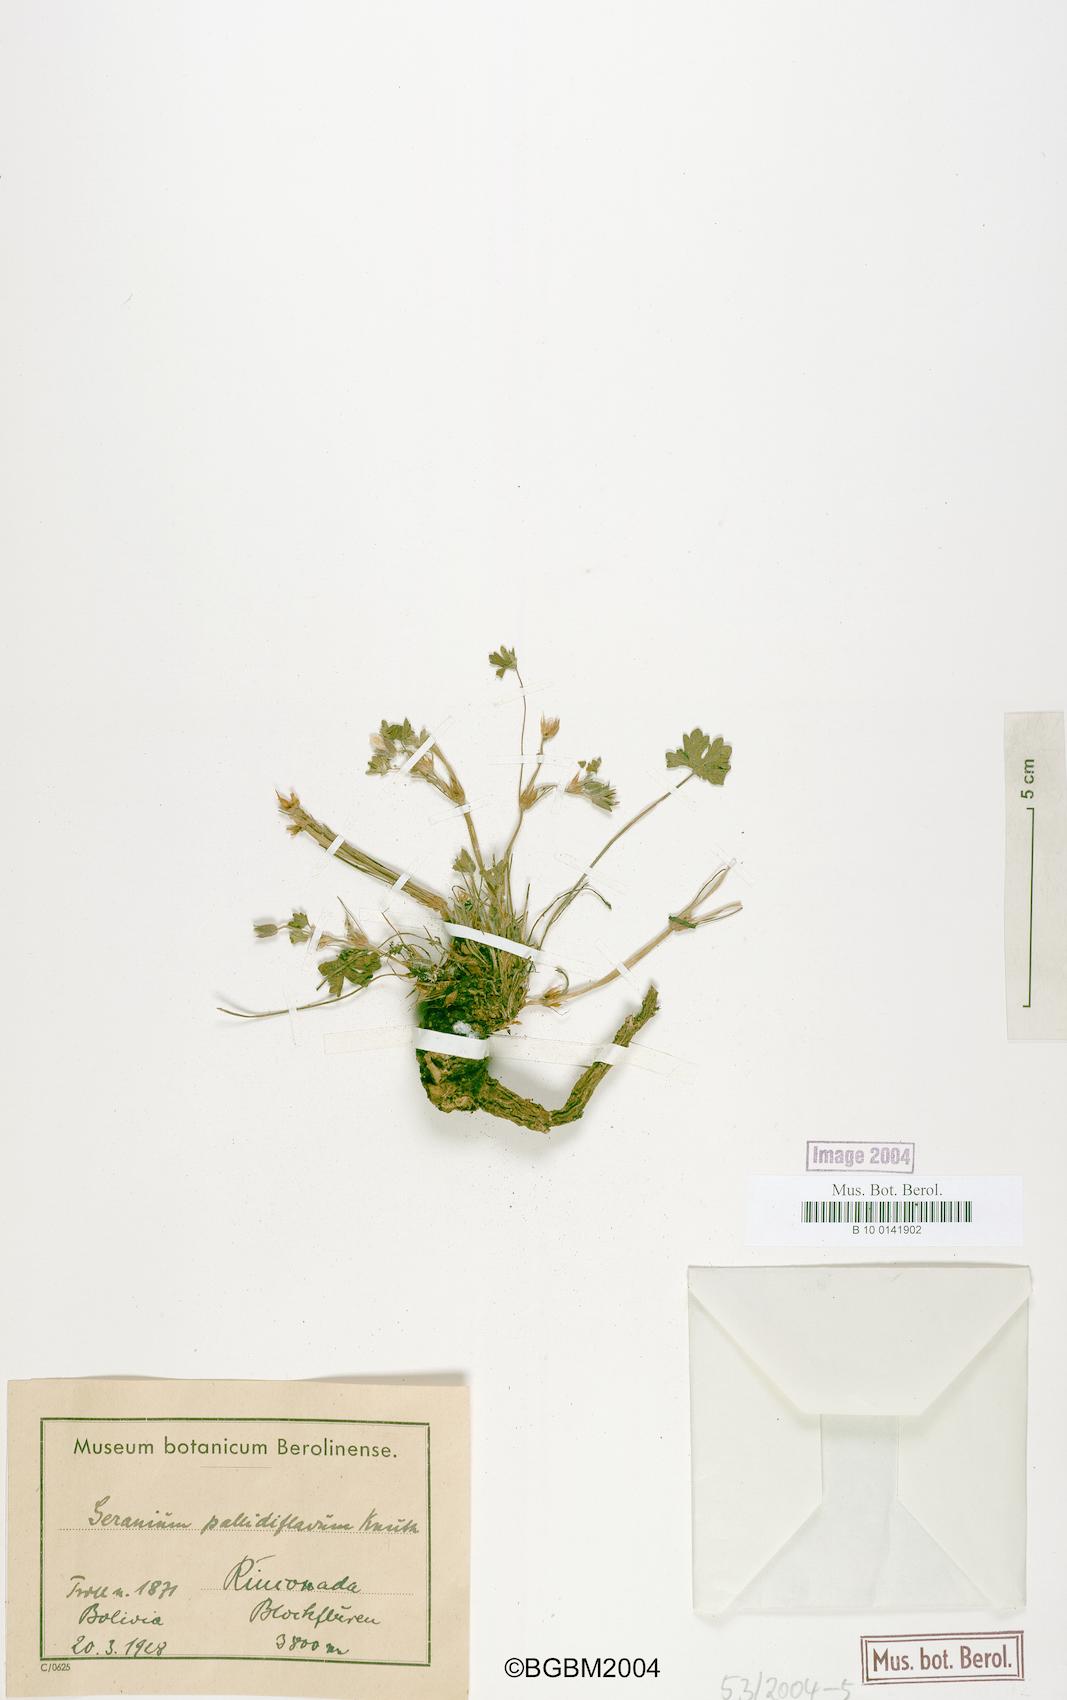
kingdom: Plantae
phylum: Tracheophyta
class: Magnoliopsida
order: Geraniales
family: Geraniaceae
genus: Geranium
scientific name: Geranium sessiliflorum
